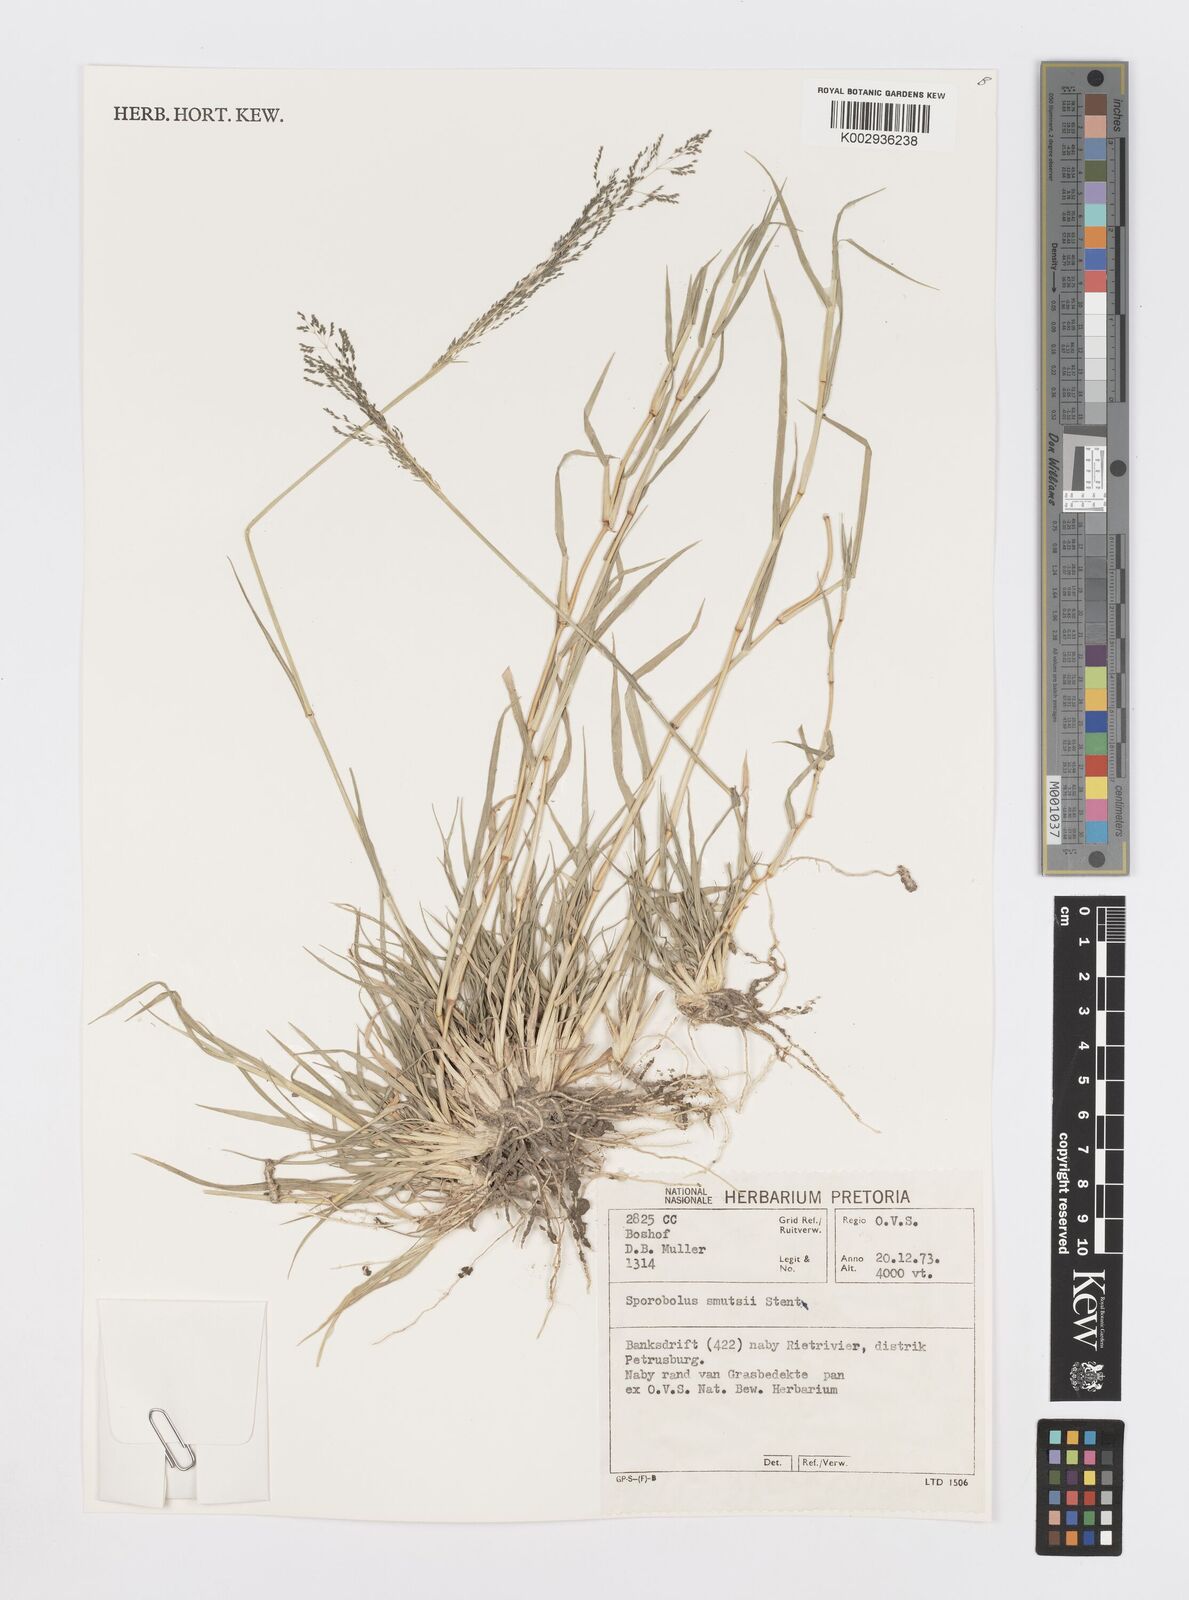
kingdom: Plantae
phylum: Tracheophyta
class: Liliopsida
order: Poales
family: Poaceae
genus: Sporobolus
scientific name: Sporobolus ioclados
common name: Pan dropseed
